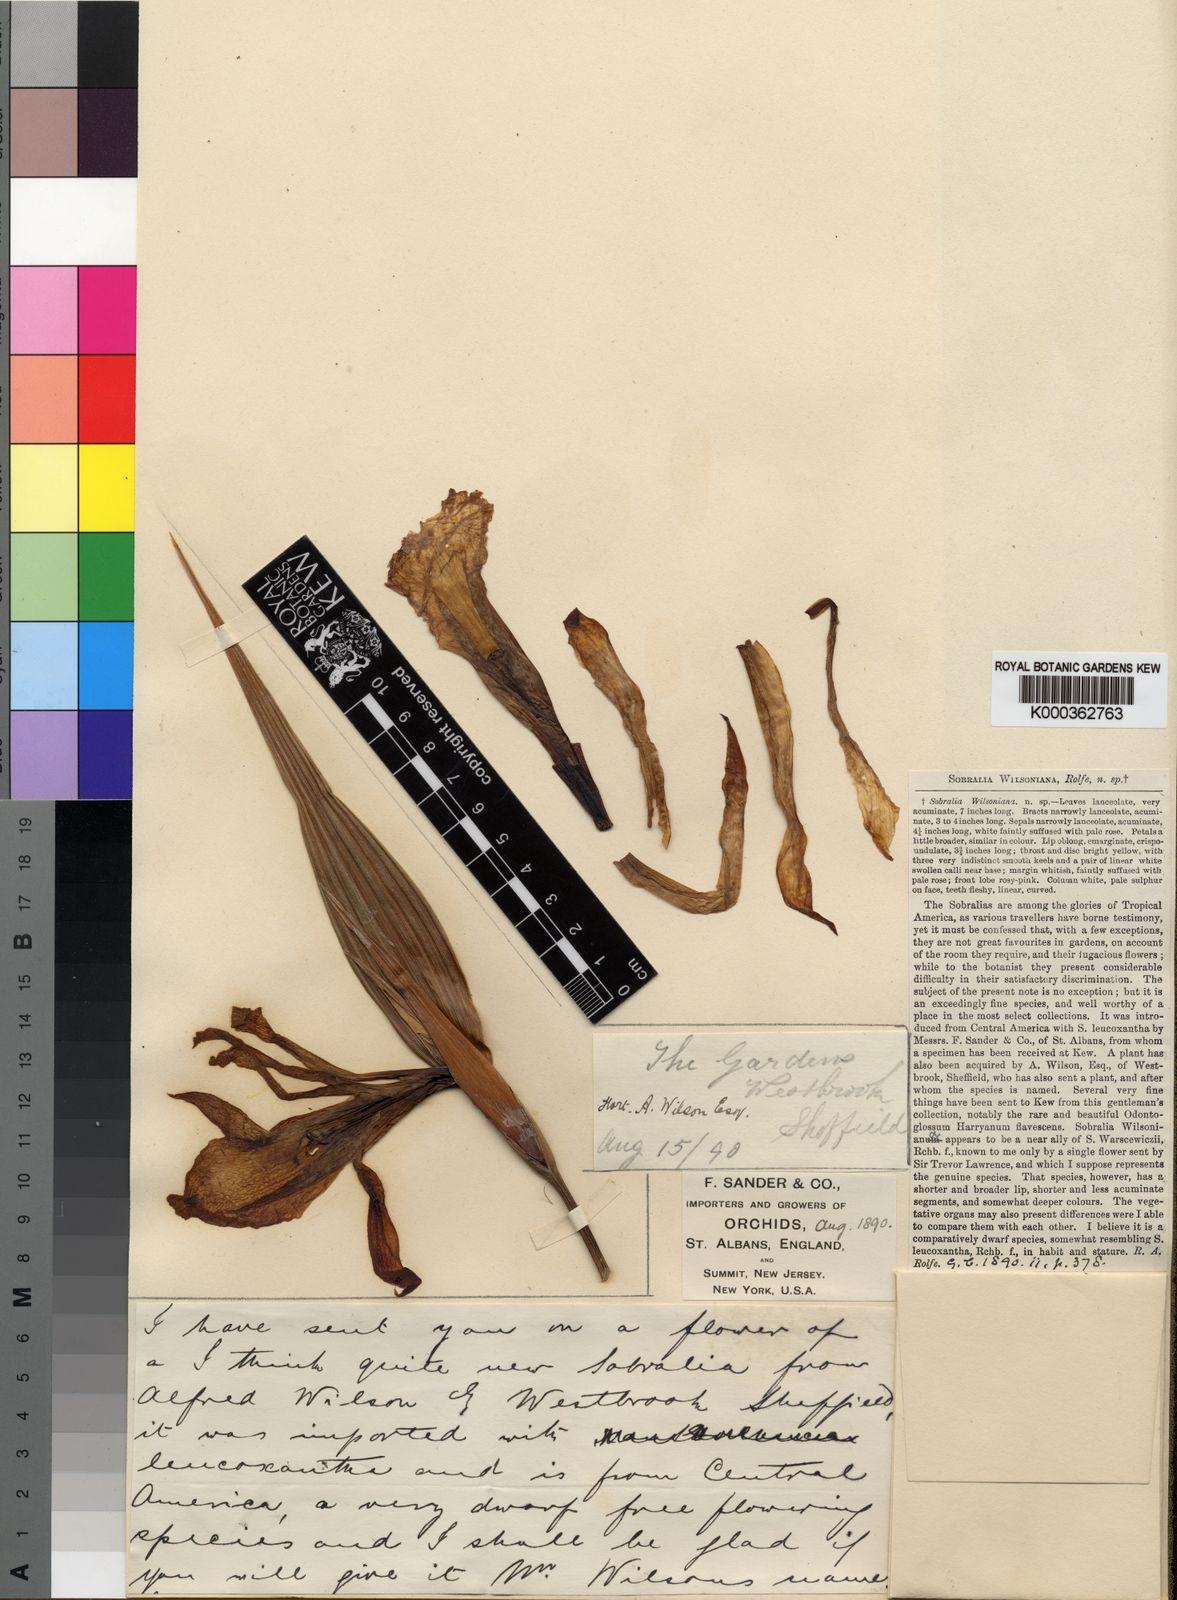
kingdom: Plantae
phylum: Tracheophyta
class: Liliopsida
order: Asparagales
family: Orchidaceae
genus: Sobralia
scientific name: Sobralia wilsoniana
